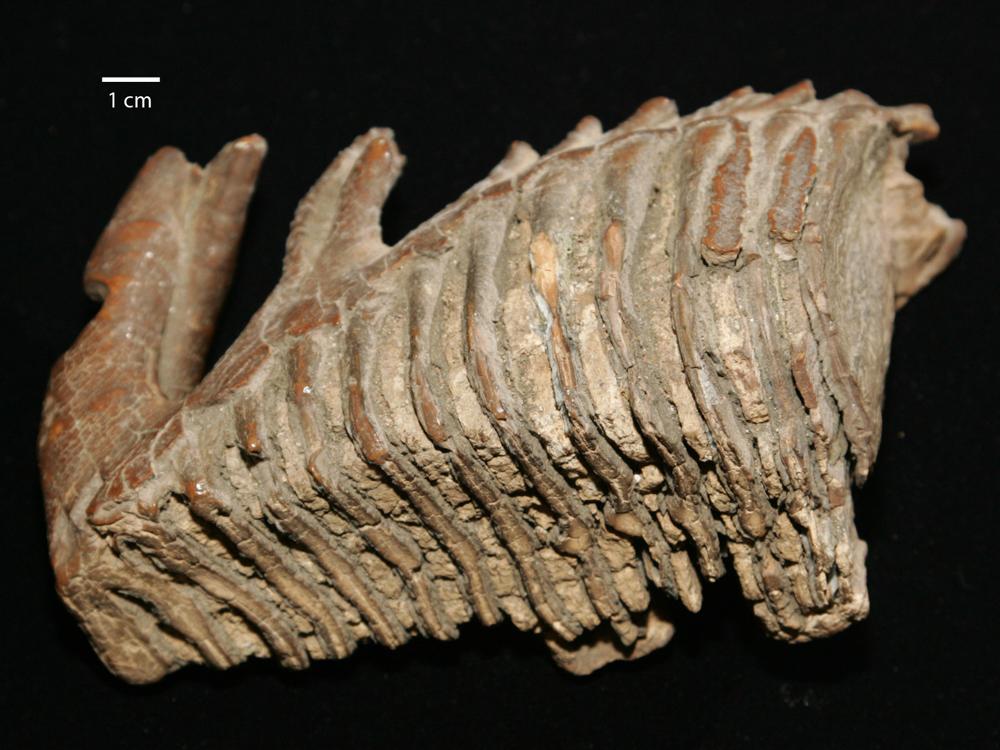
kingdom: Animalia
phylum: Chordata
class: Mammalia
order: Proboscidea
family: Elephantidae
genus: Mammuthus
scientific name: Mammuthus primigenius
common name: Wooly mammoth
